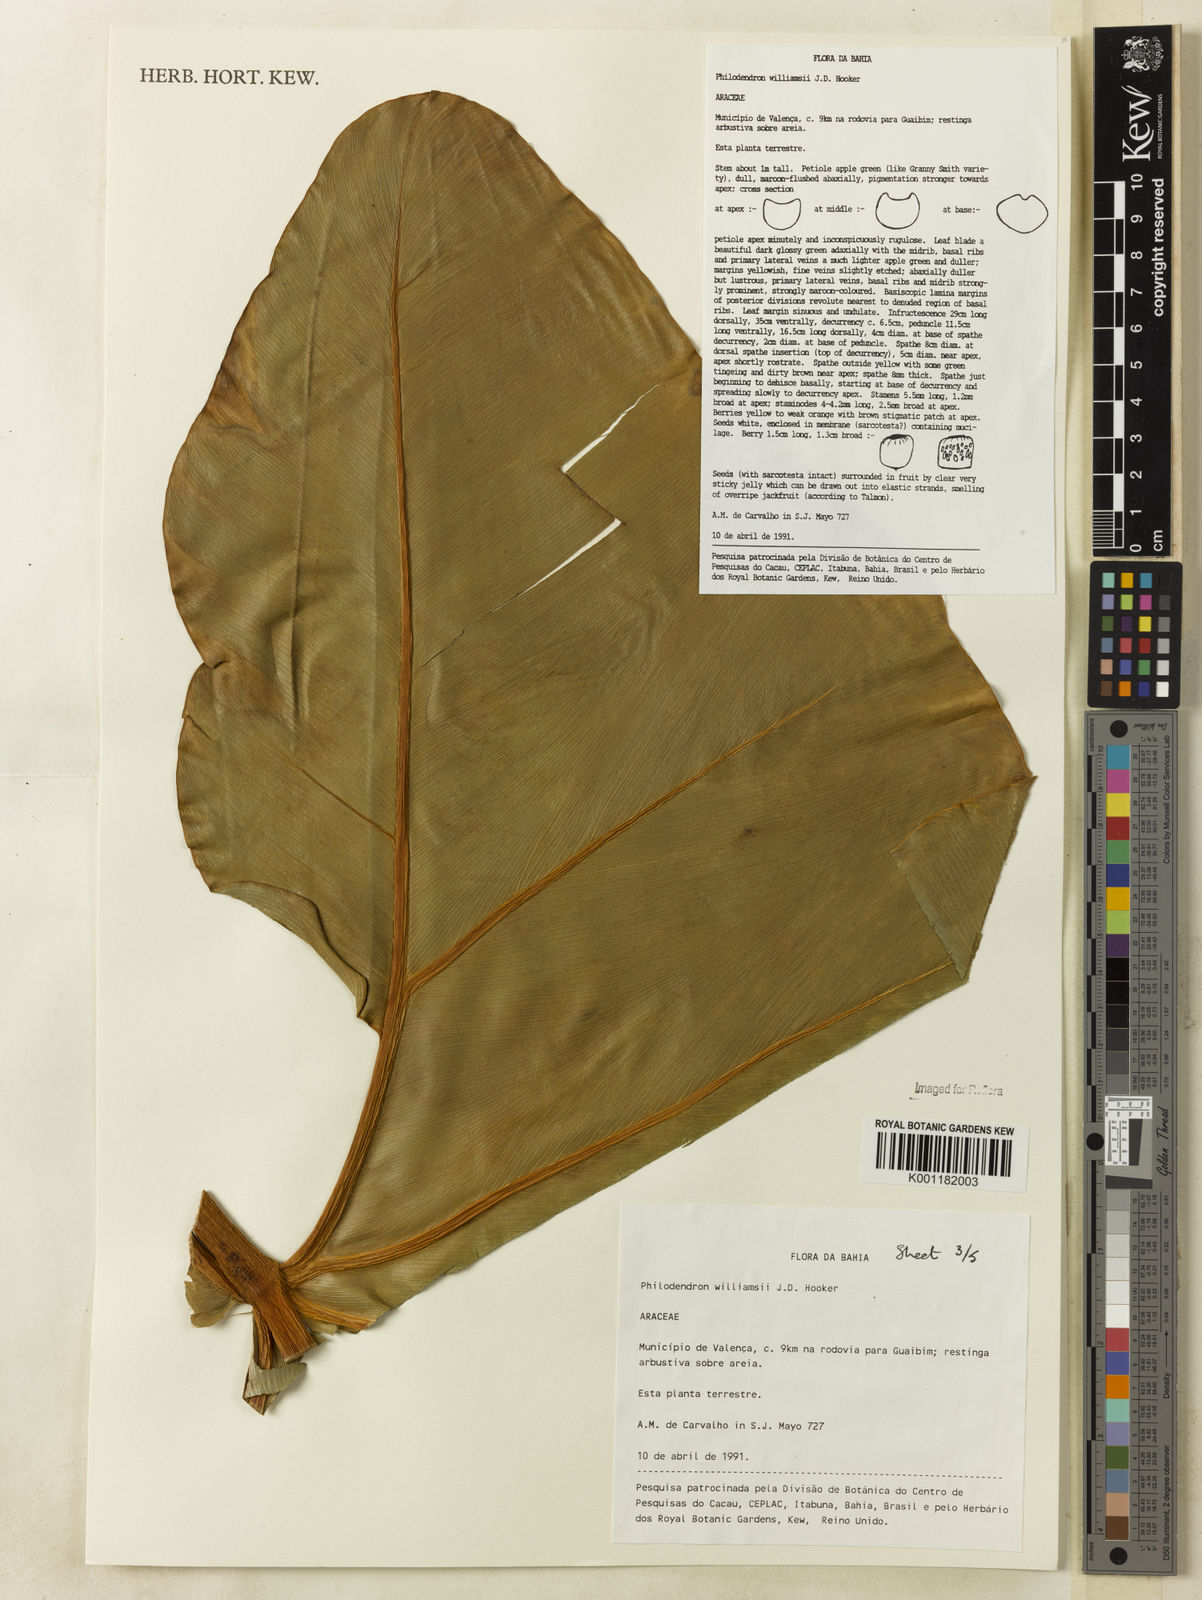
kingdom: Plantae
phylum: Tracheophyta
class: Liliopsida
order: Alismatales
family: Araceae
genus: Thaumatophyllum
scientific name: Thaumatophyllum williamsii
